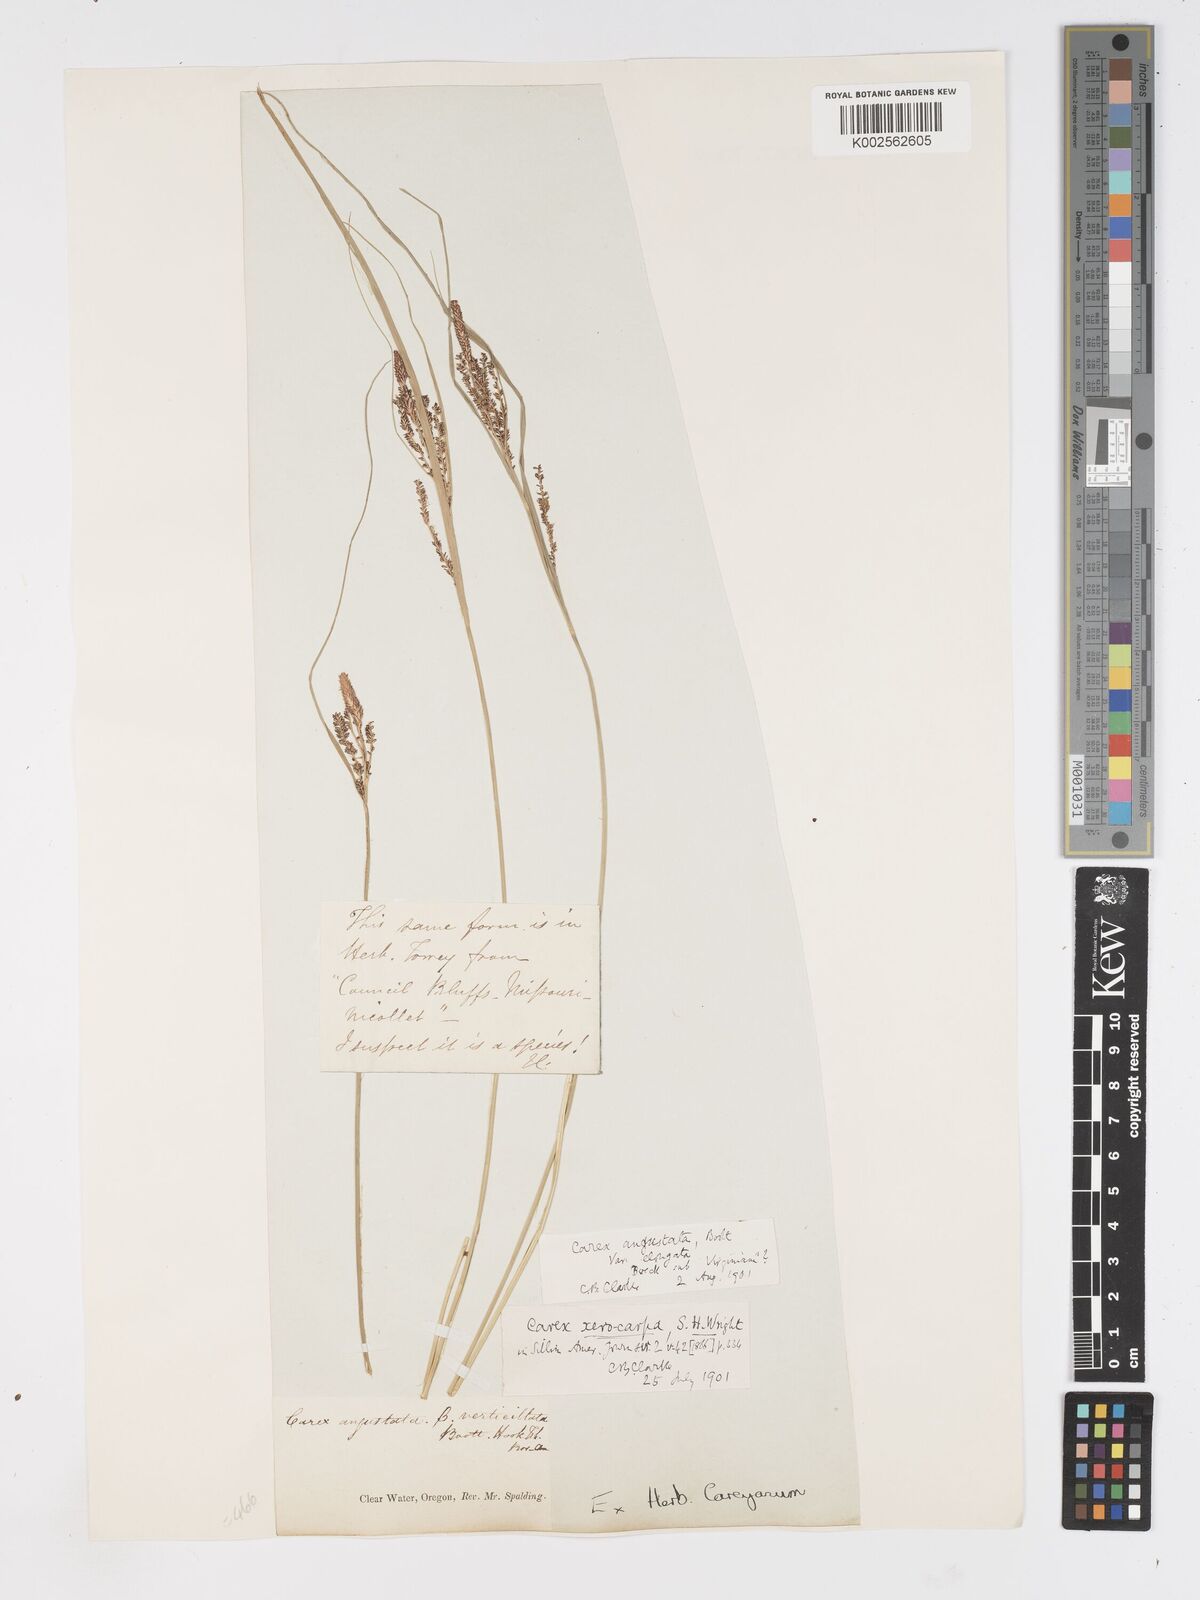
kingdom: Plantae
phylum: Tracheophyta
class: Liliopsida
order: Poales
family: Cyperaceae
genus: Carex
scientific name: Carex stricta
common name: Hummock sedge
